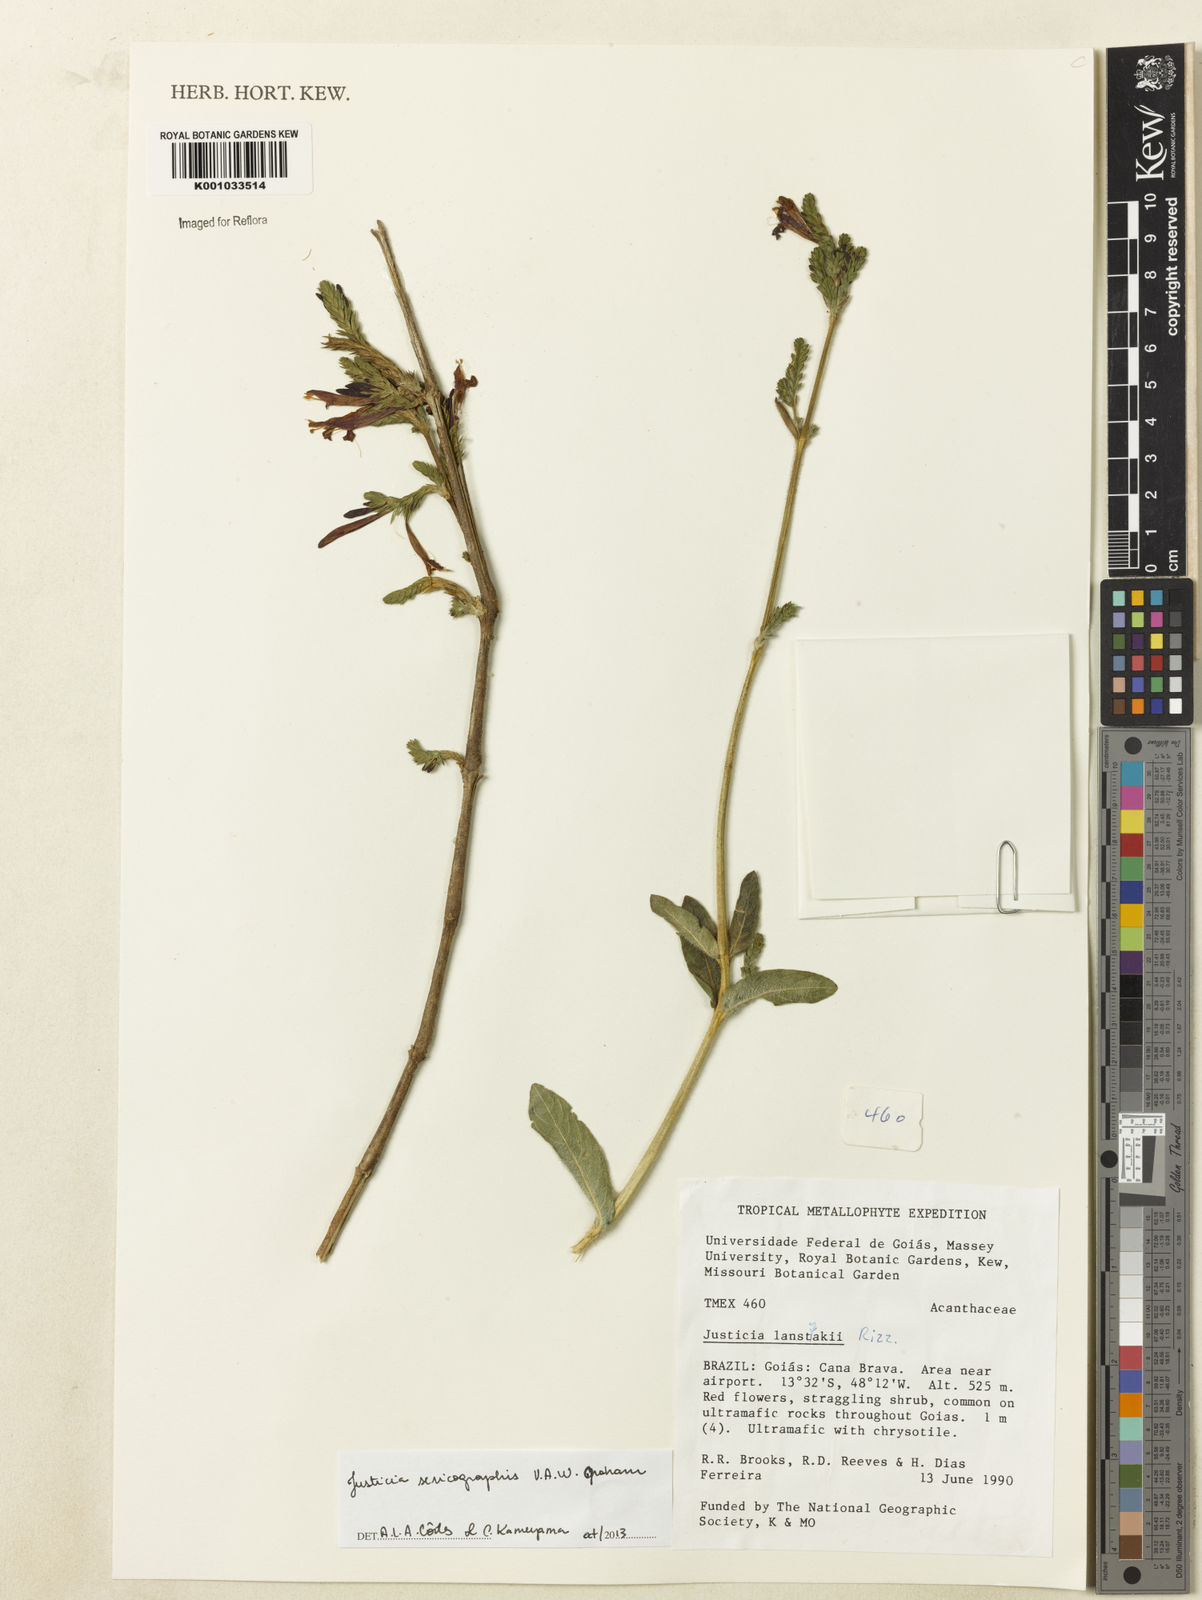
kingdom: Plantae
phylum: Tracheophyta
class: Magnoliopsida
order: Lamiales
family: Acanthaceae
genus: Dianthera
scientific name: Dianthera rigida
